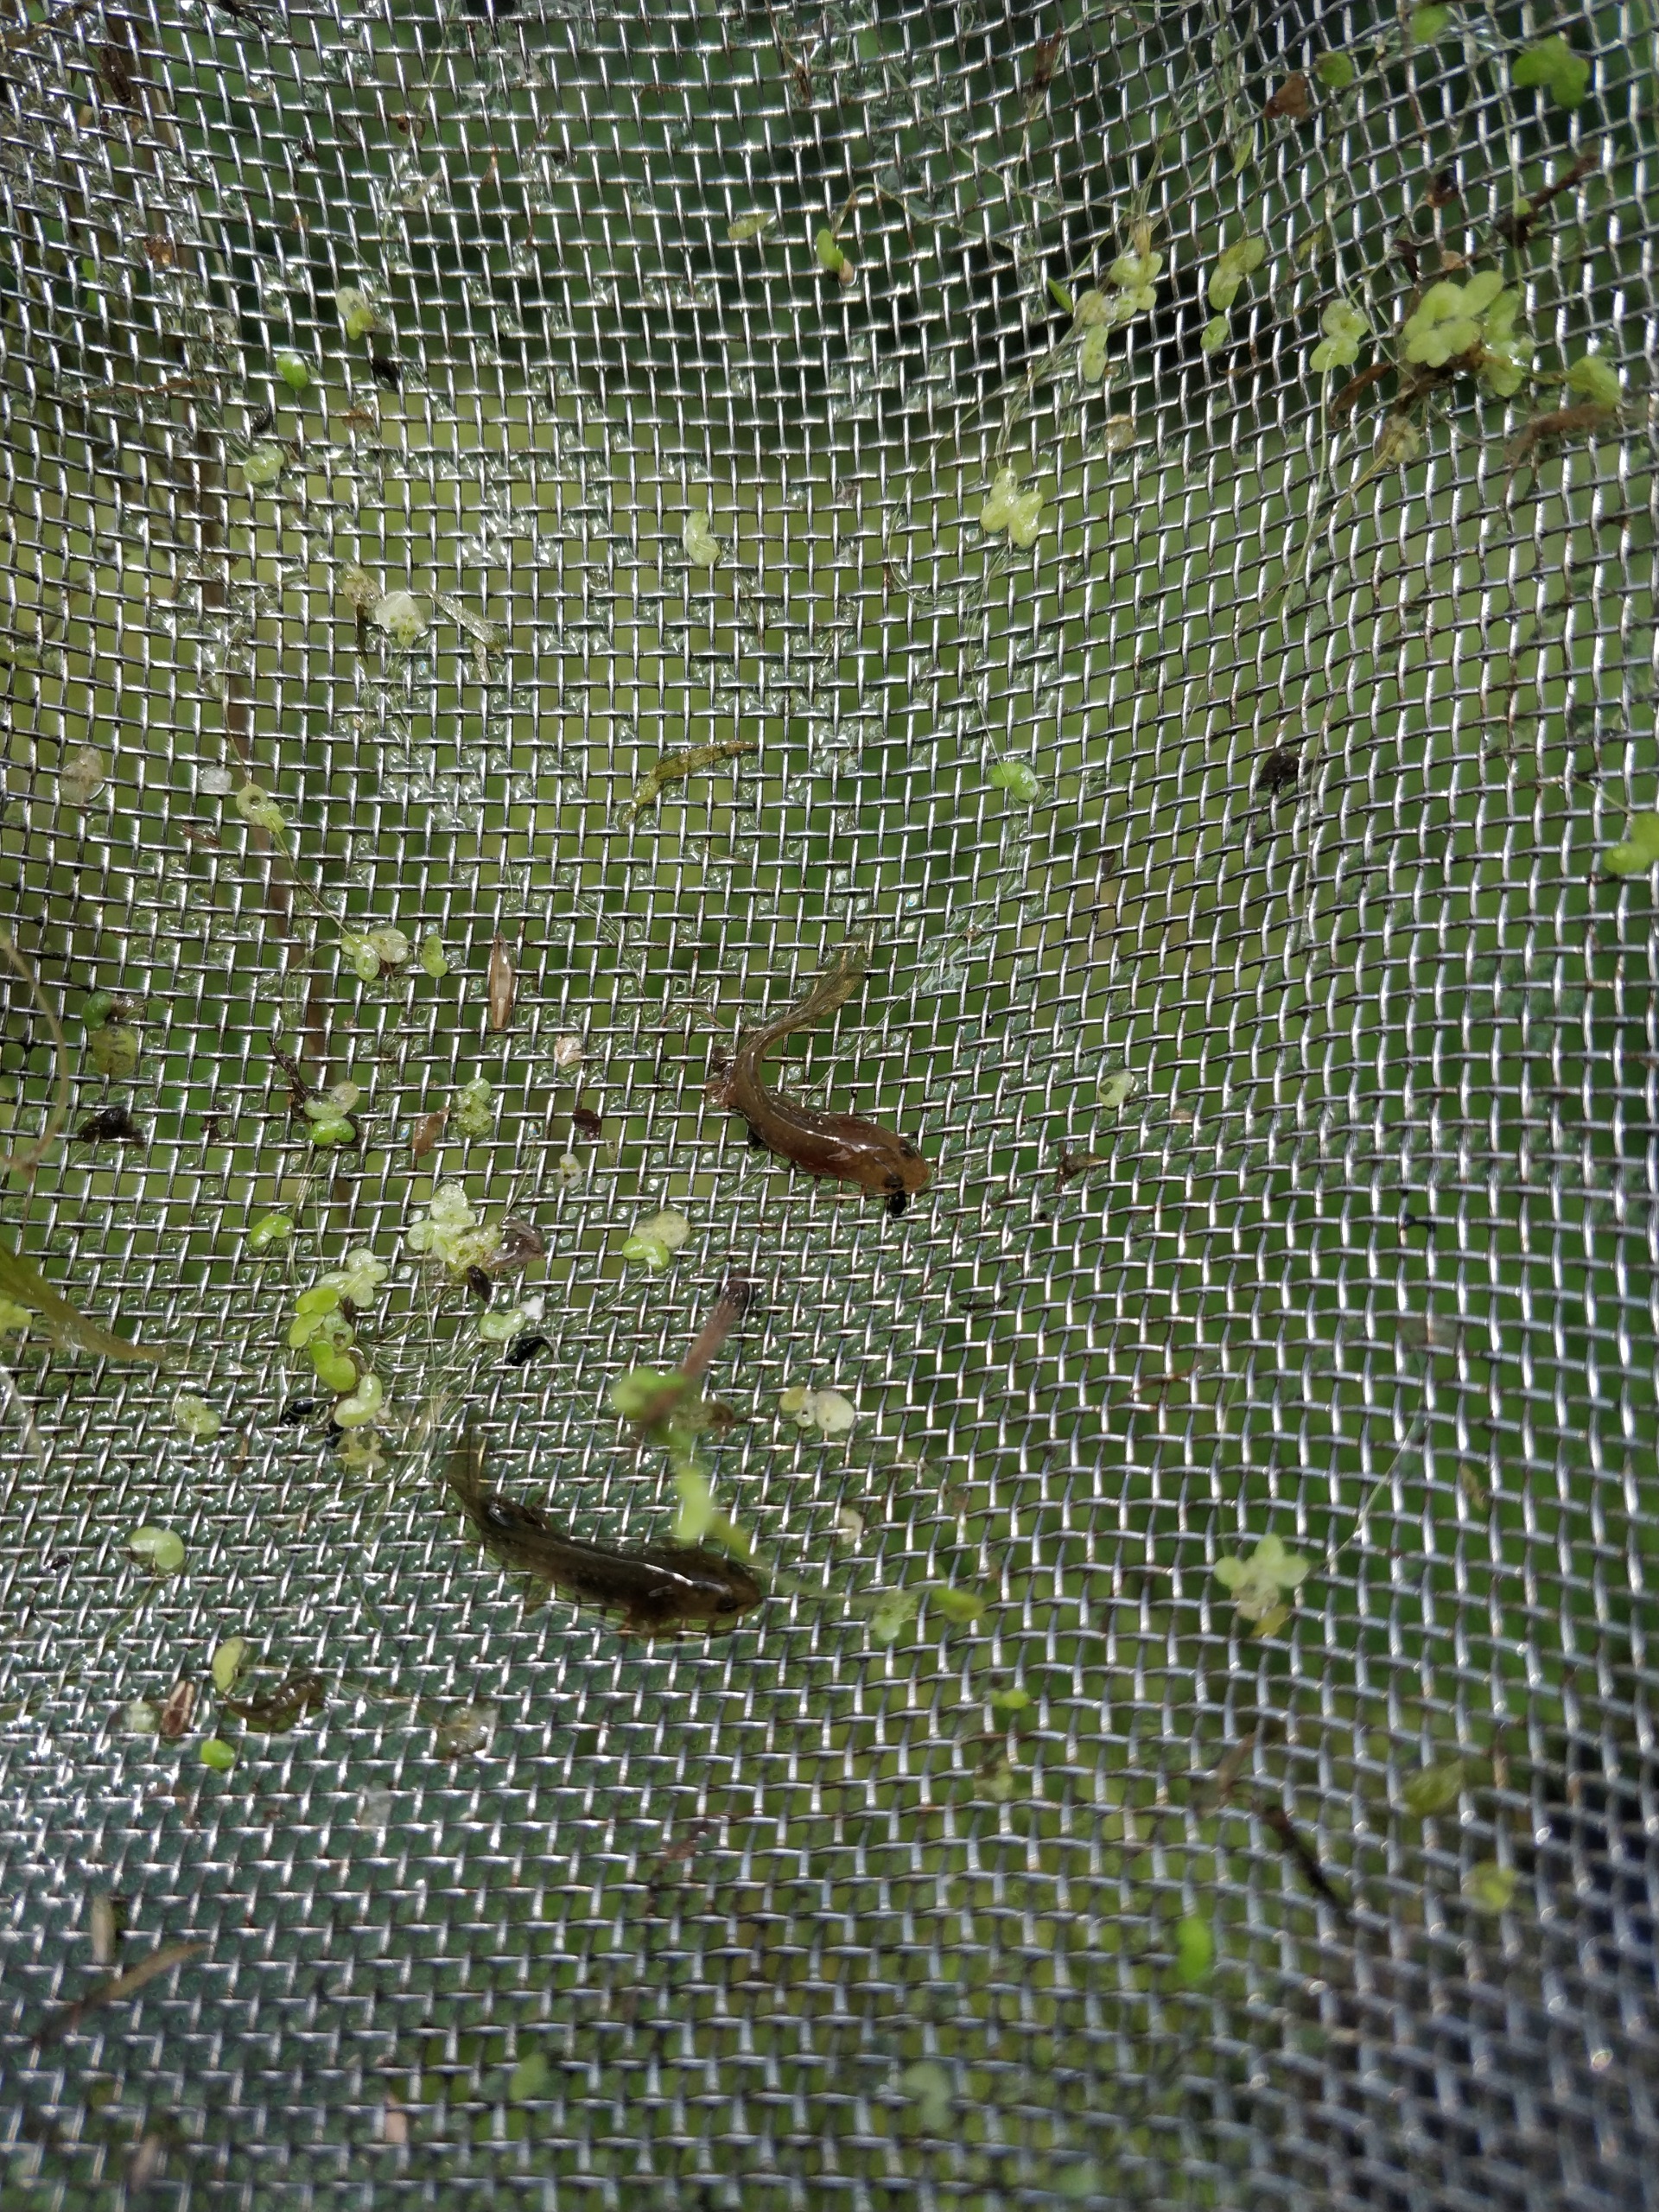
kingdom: Animalia
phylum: Chordata
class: Amphibia
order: Caudata
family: Salamandridae
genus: Lissotriton
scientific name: Lissotriton vulgaris
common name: Lille vandsalamander
